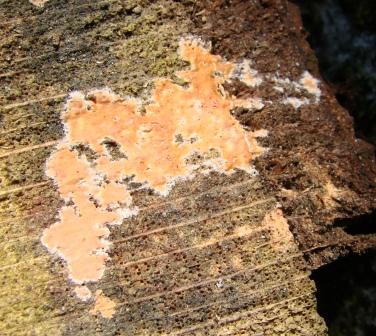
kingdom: Fungi
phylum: Basidiomycota
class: Agaricomycetes
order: Russulales
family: Peniophoraceae
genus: Peniophora
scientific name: Peniophora incarnata
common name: laksefarvet voksskind
